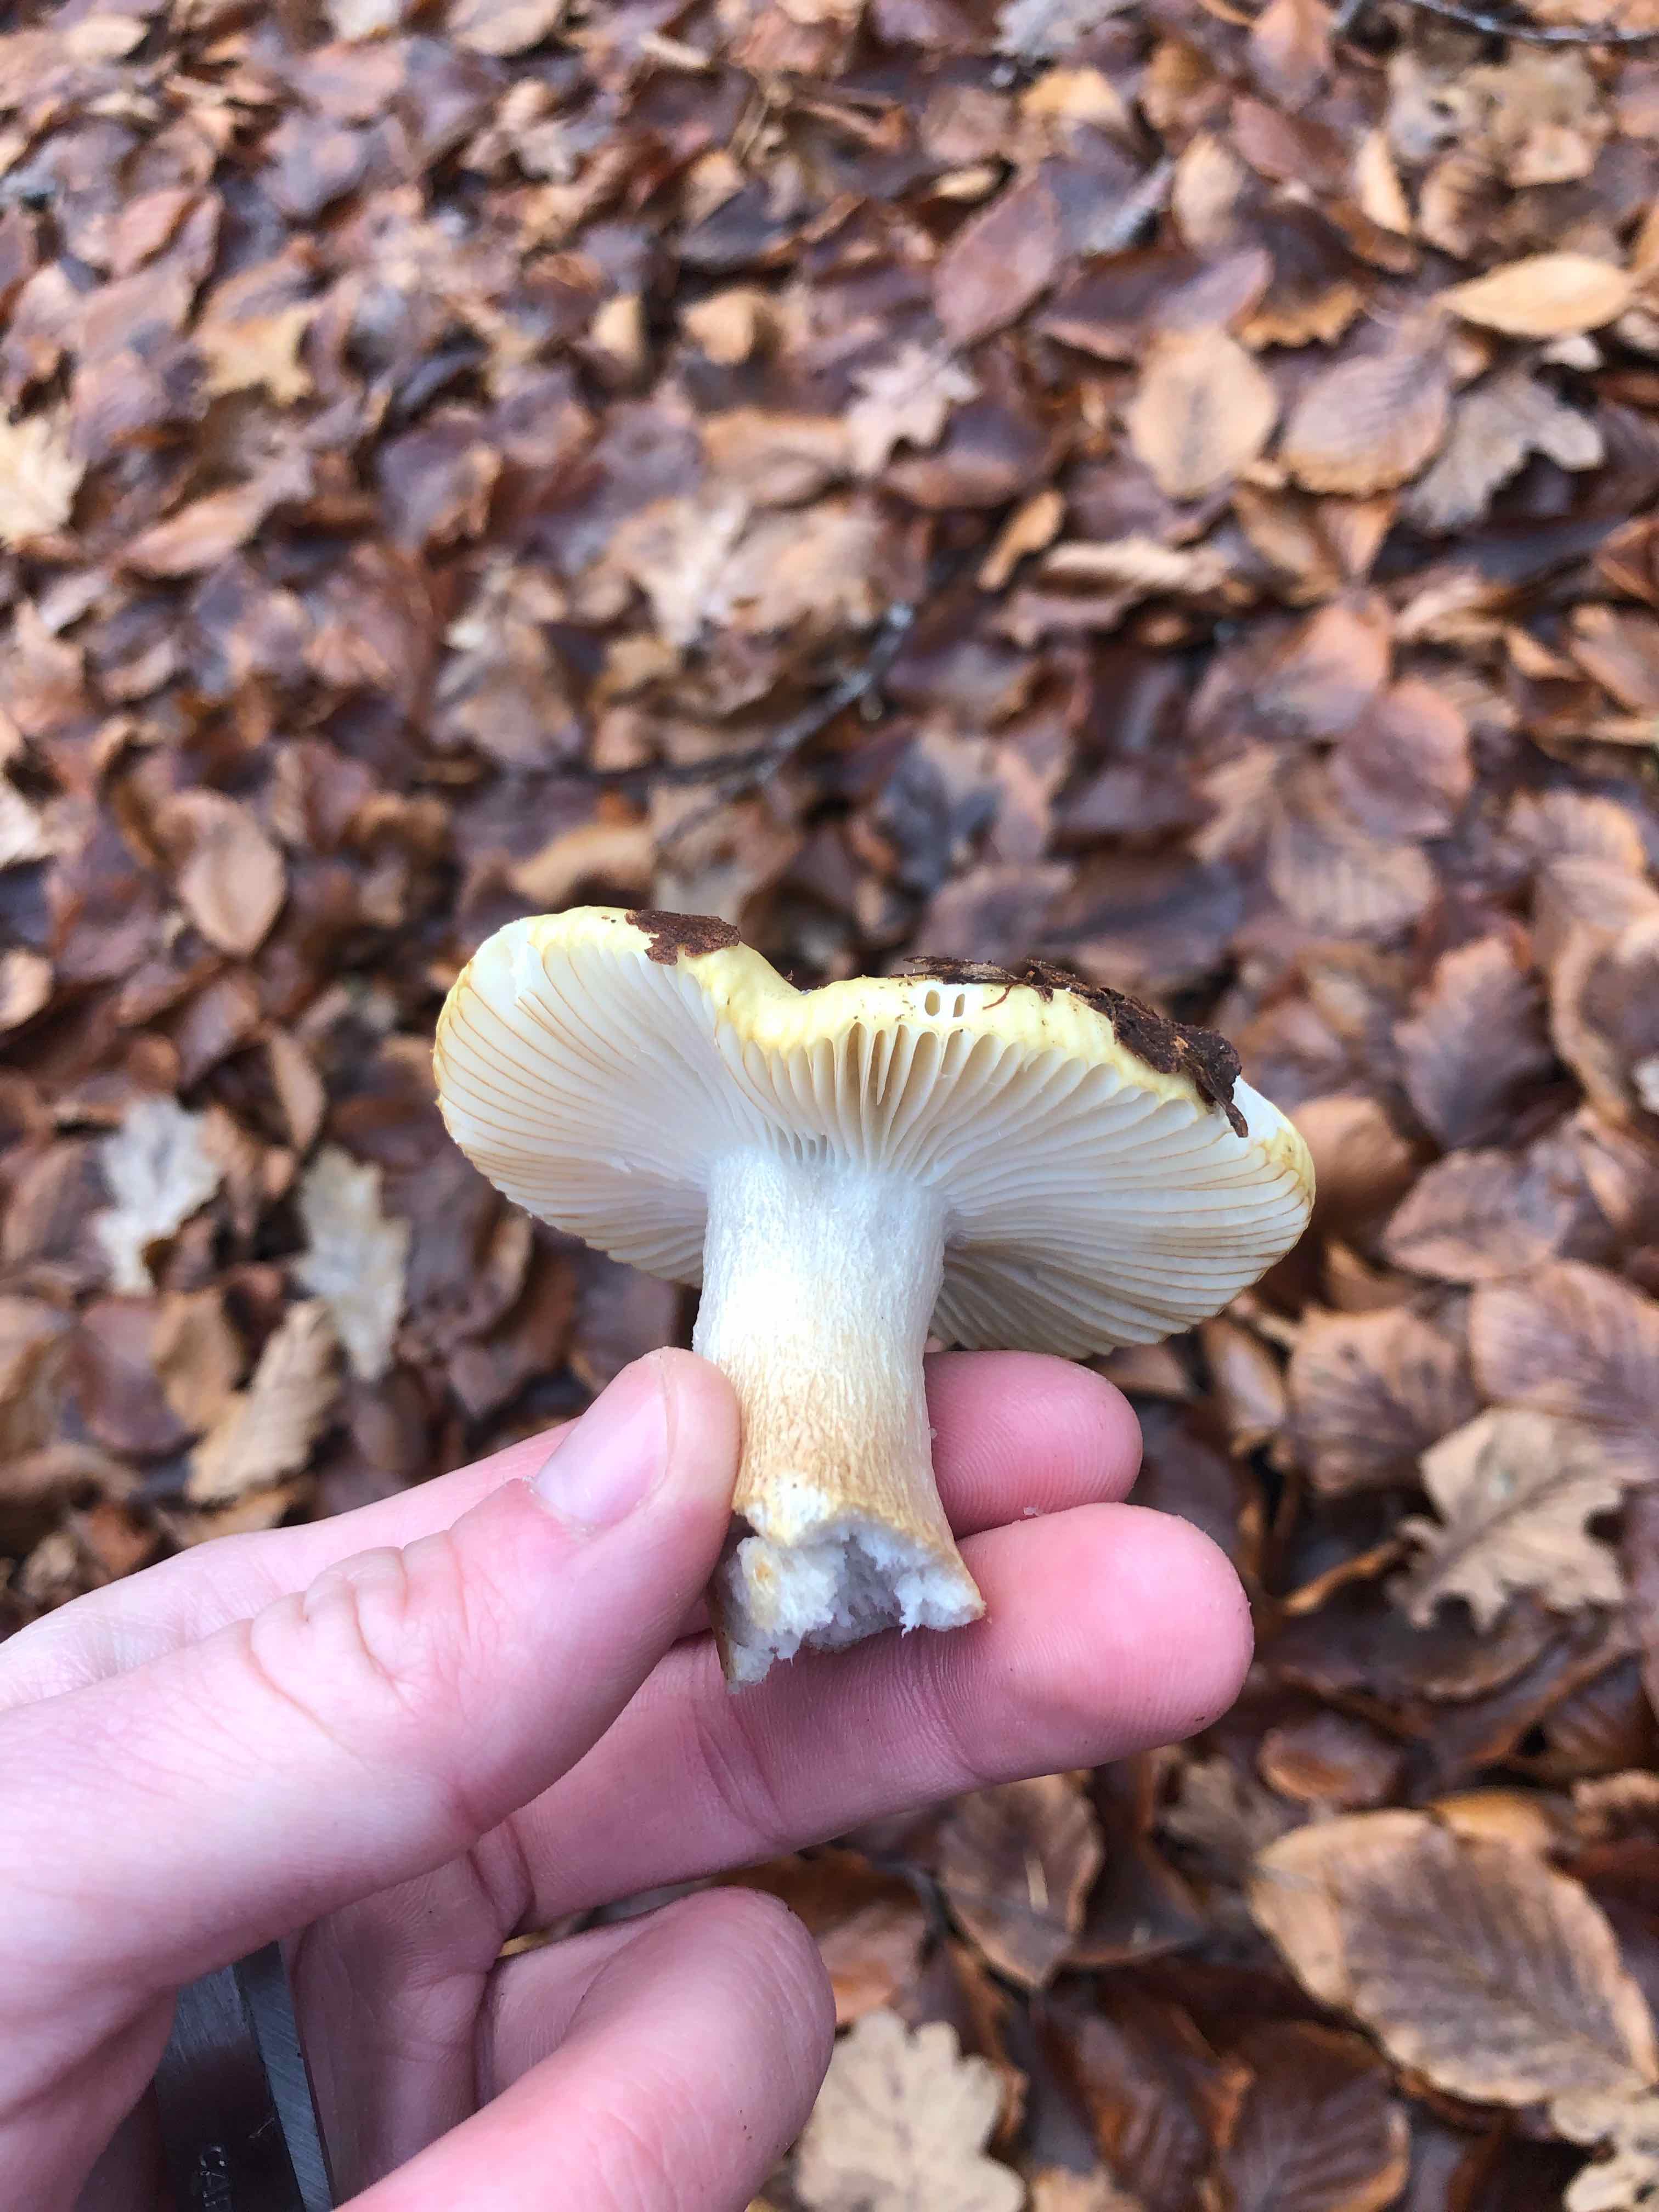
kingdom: Fungi
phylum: Basidiomycota
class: Agaricomycetes
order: Russulales
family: Russulaceae
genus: Russula
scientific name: Russula ochroleuca
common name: okkergul skørhat
